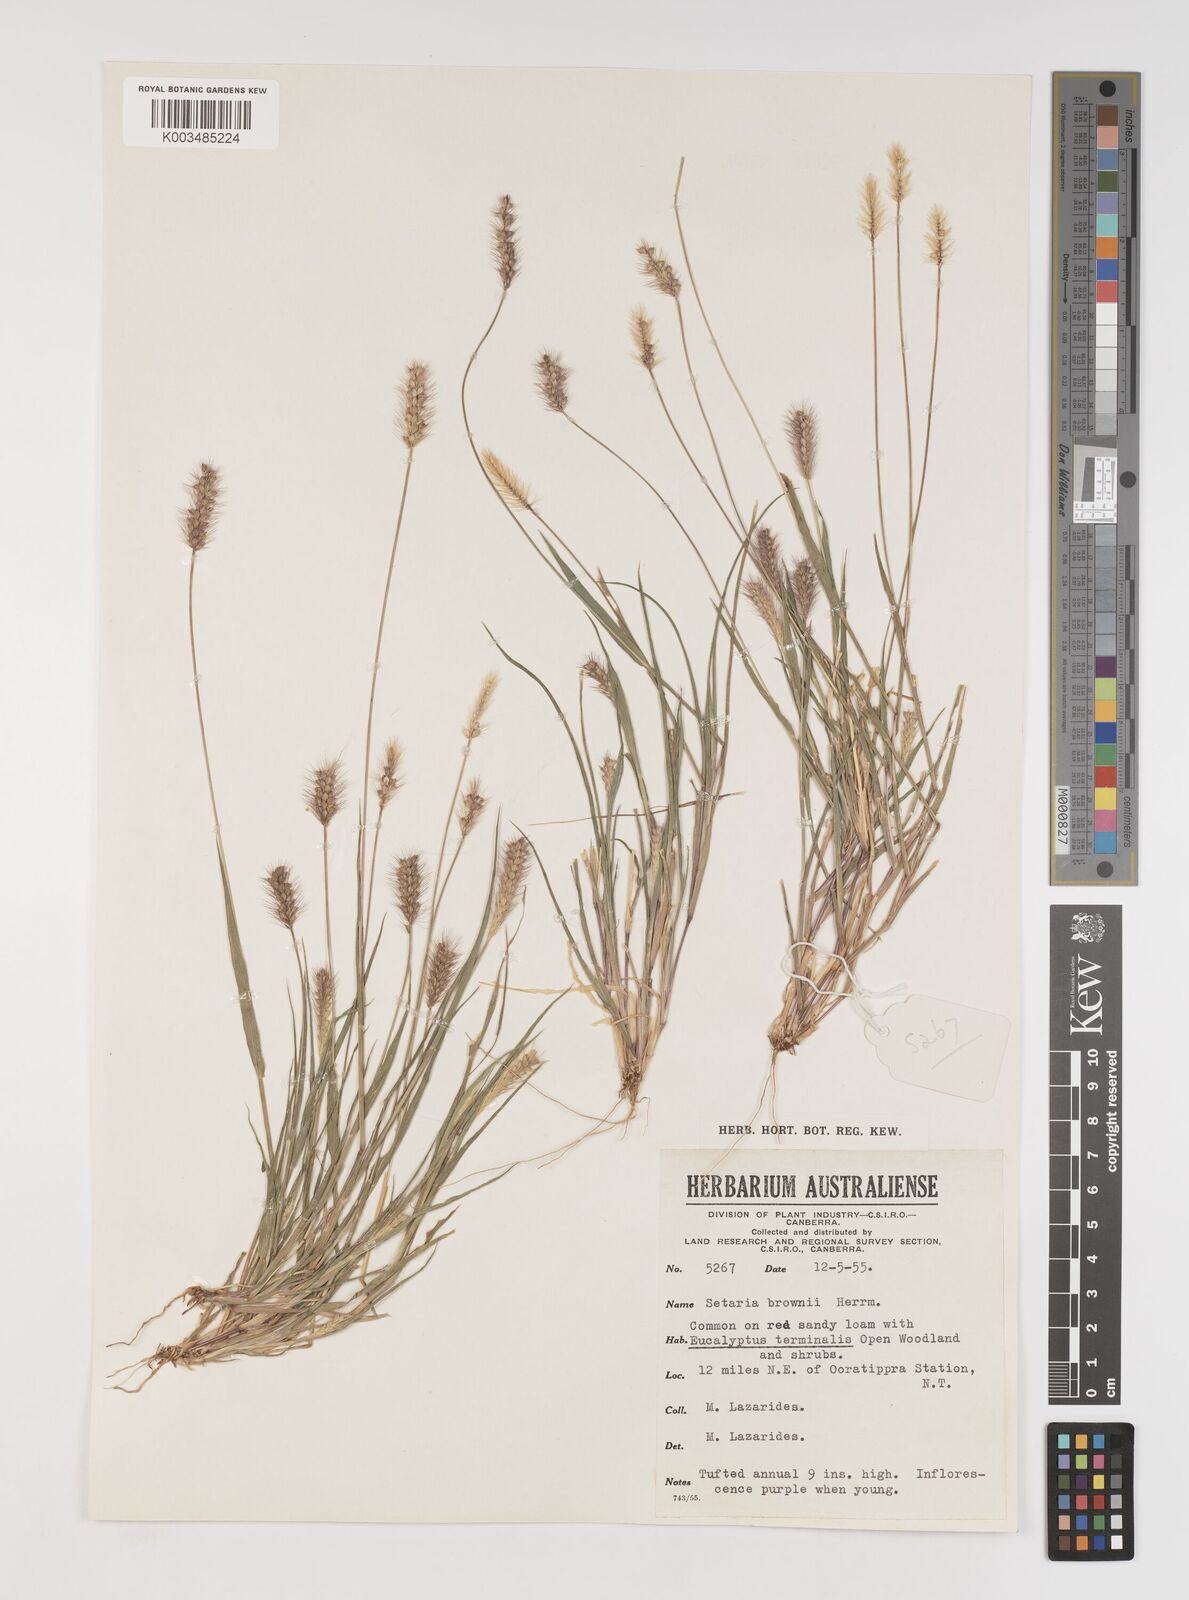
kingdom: Plantae
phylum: Tracheophyta
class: Liliopsida
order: Poales
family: Poaceae
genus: Setaria
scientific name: Setaria surgens
